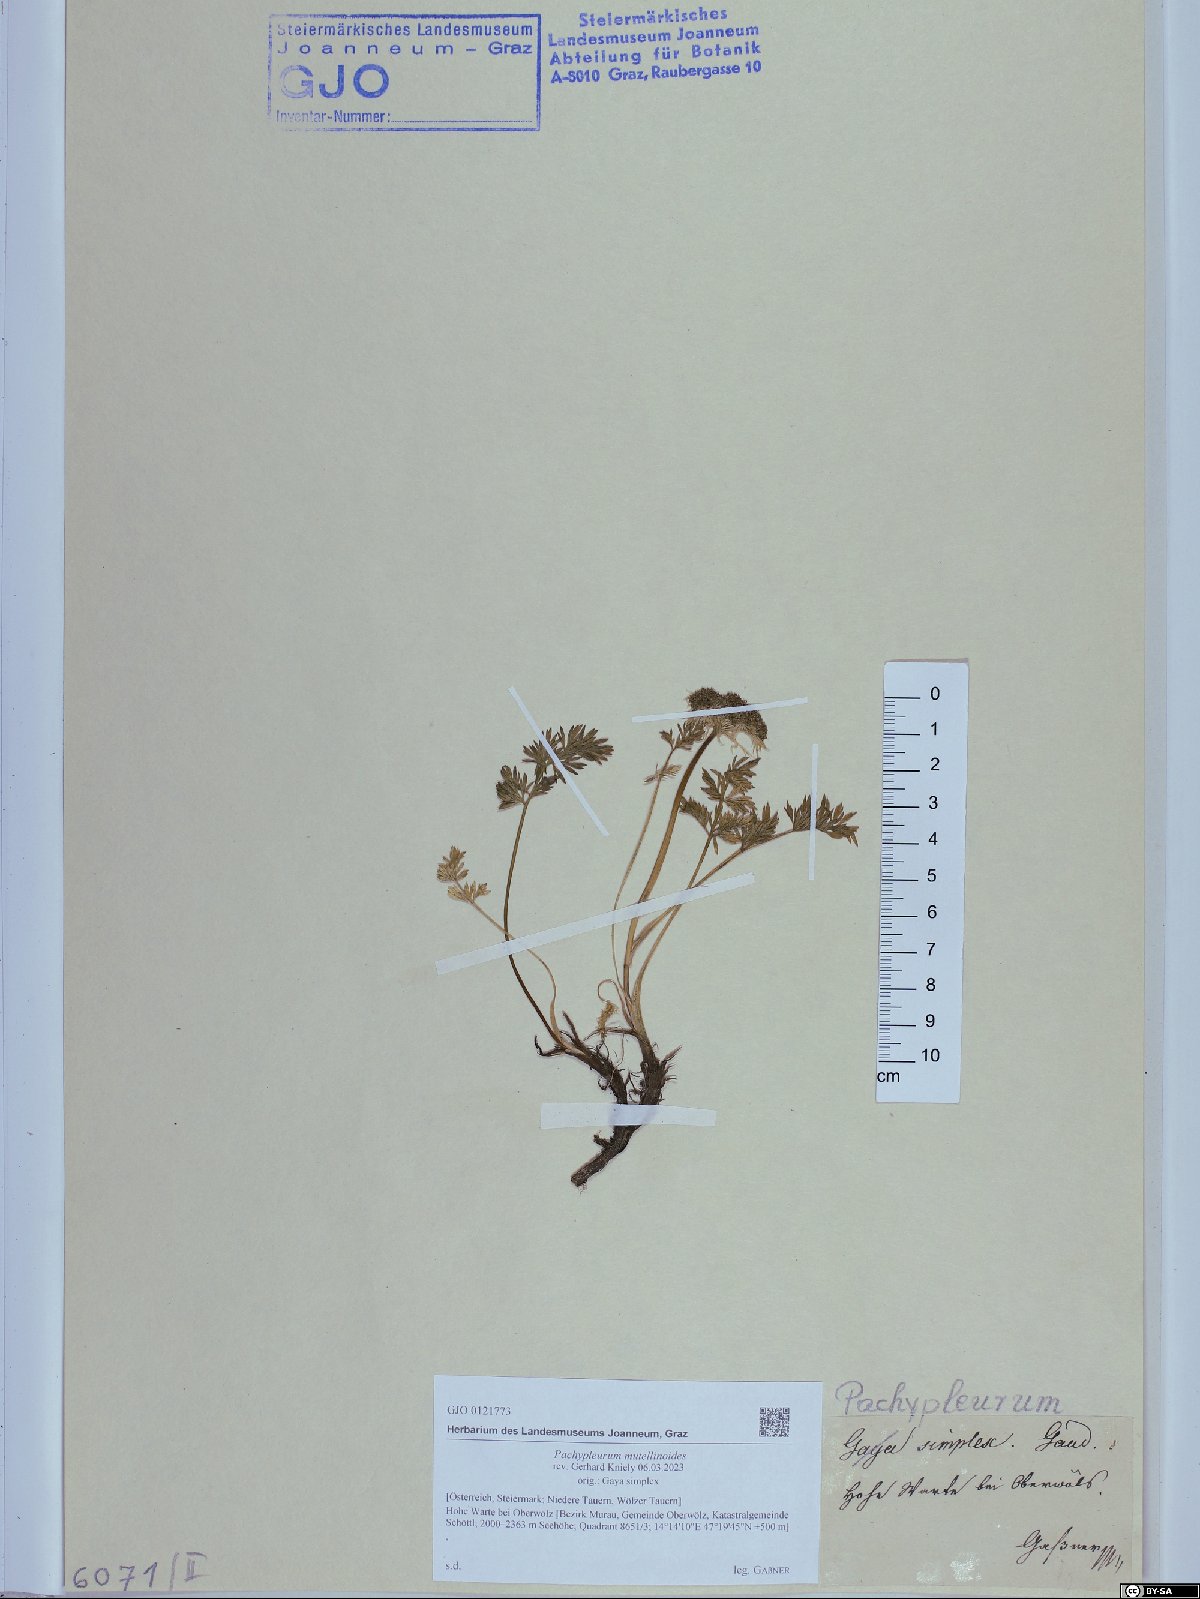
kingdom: Plantae
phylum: Tracheophyta
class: Magnoliopsida
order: Apiales
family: Apiaceae
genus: Pachypleurum
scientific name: Pachypleurum mutellinoides
